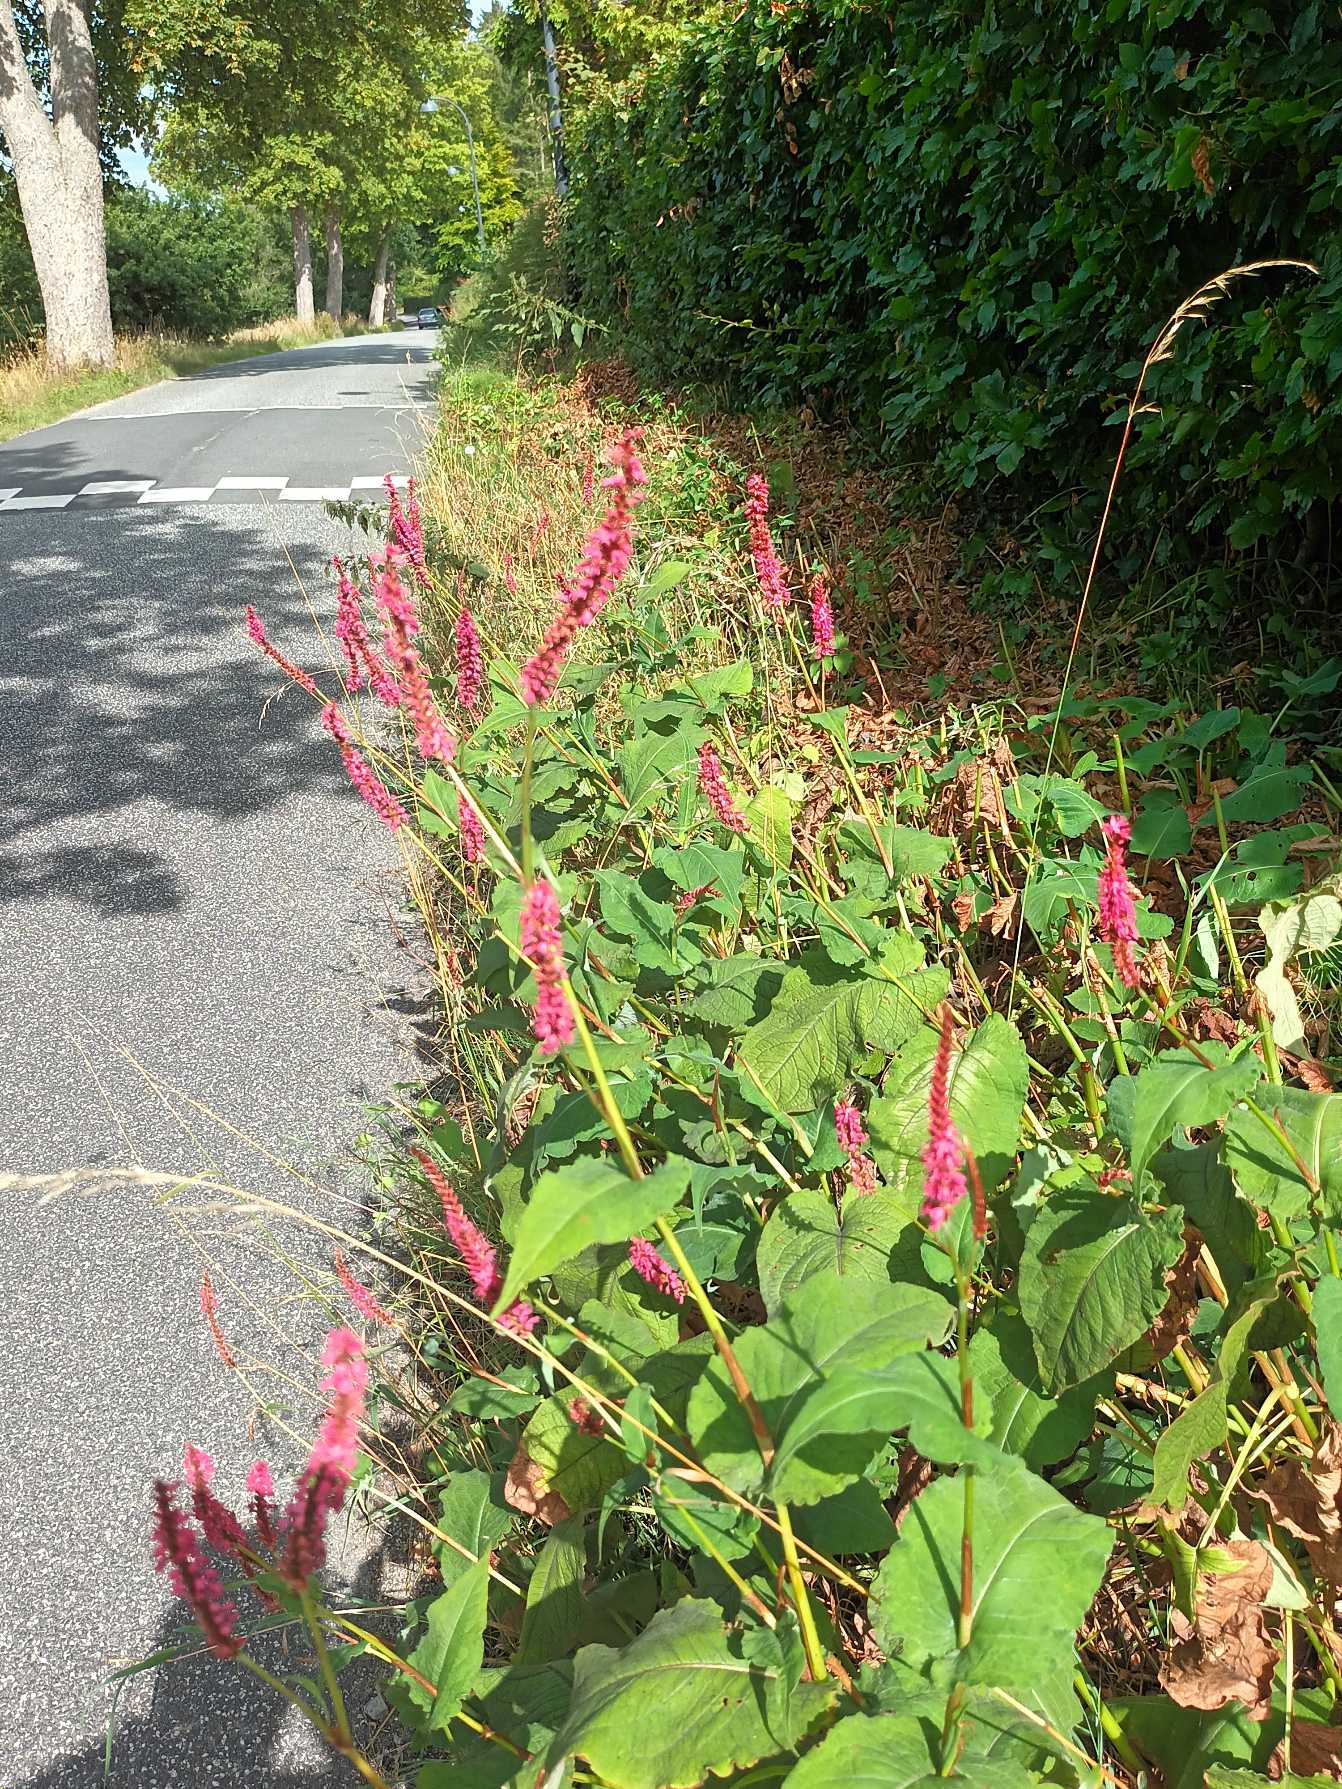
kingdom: Plantae
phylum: Tracheophyta
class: Magnoliopsida
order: Caryophyllales
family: Polygonaceae
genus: Bistorta
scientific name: Bistorta amplexicaulis
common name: Kærte-pileurt
